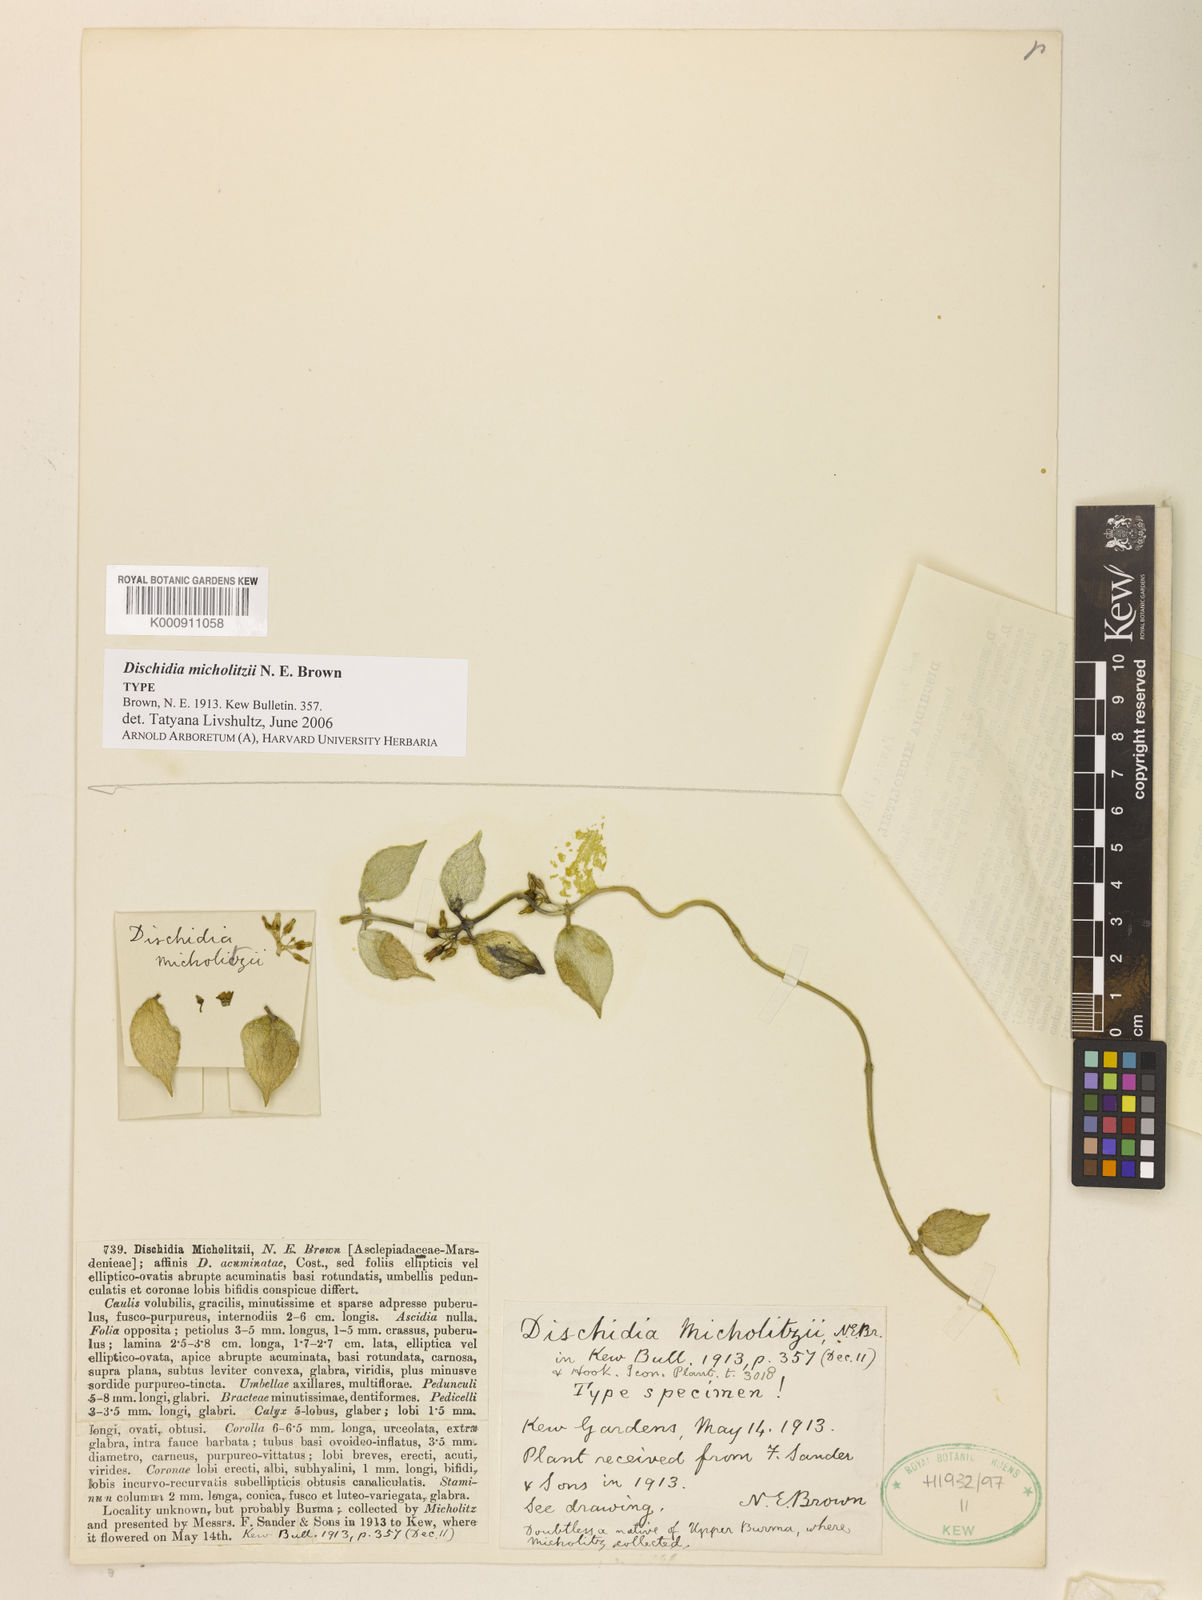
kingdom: Plantae
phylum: Tracheophyta
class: Magnoliopsida
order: Gentianales
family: Apocynaceae
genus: Dischidia
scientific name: Dischidia micholitzii
